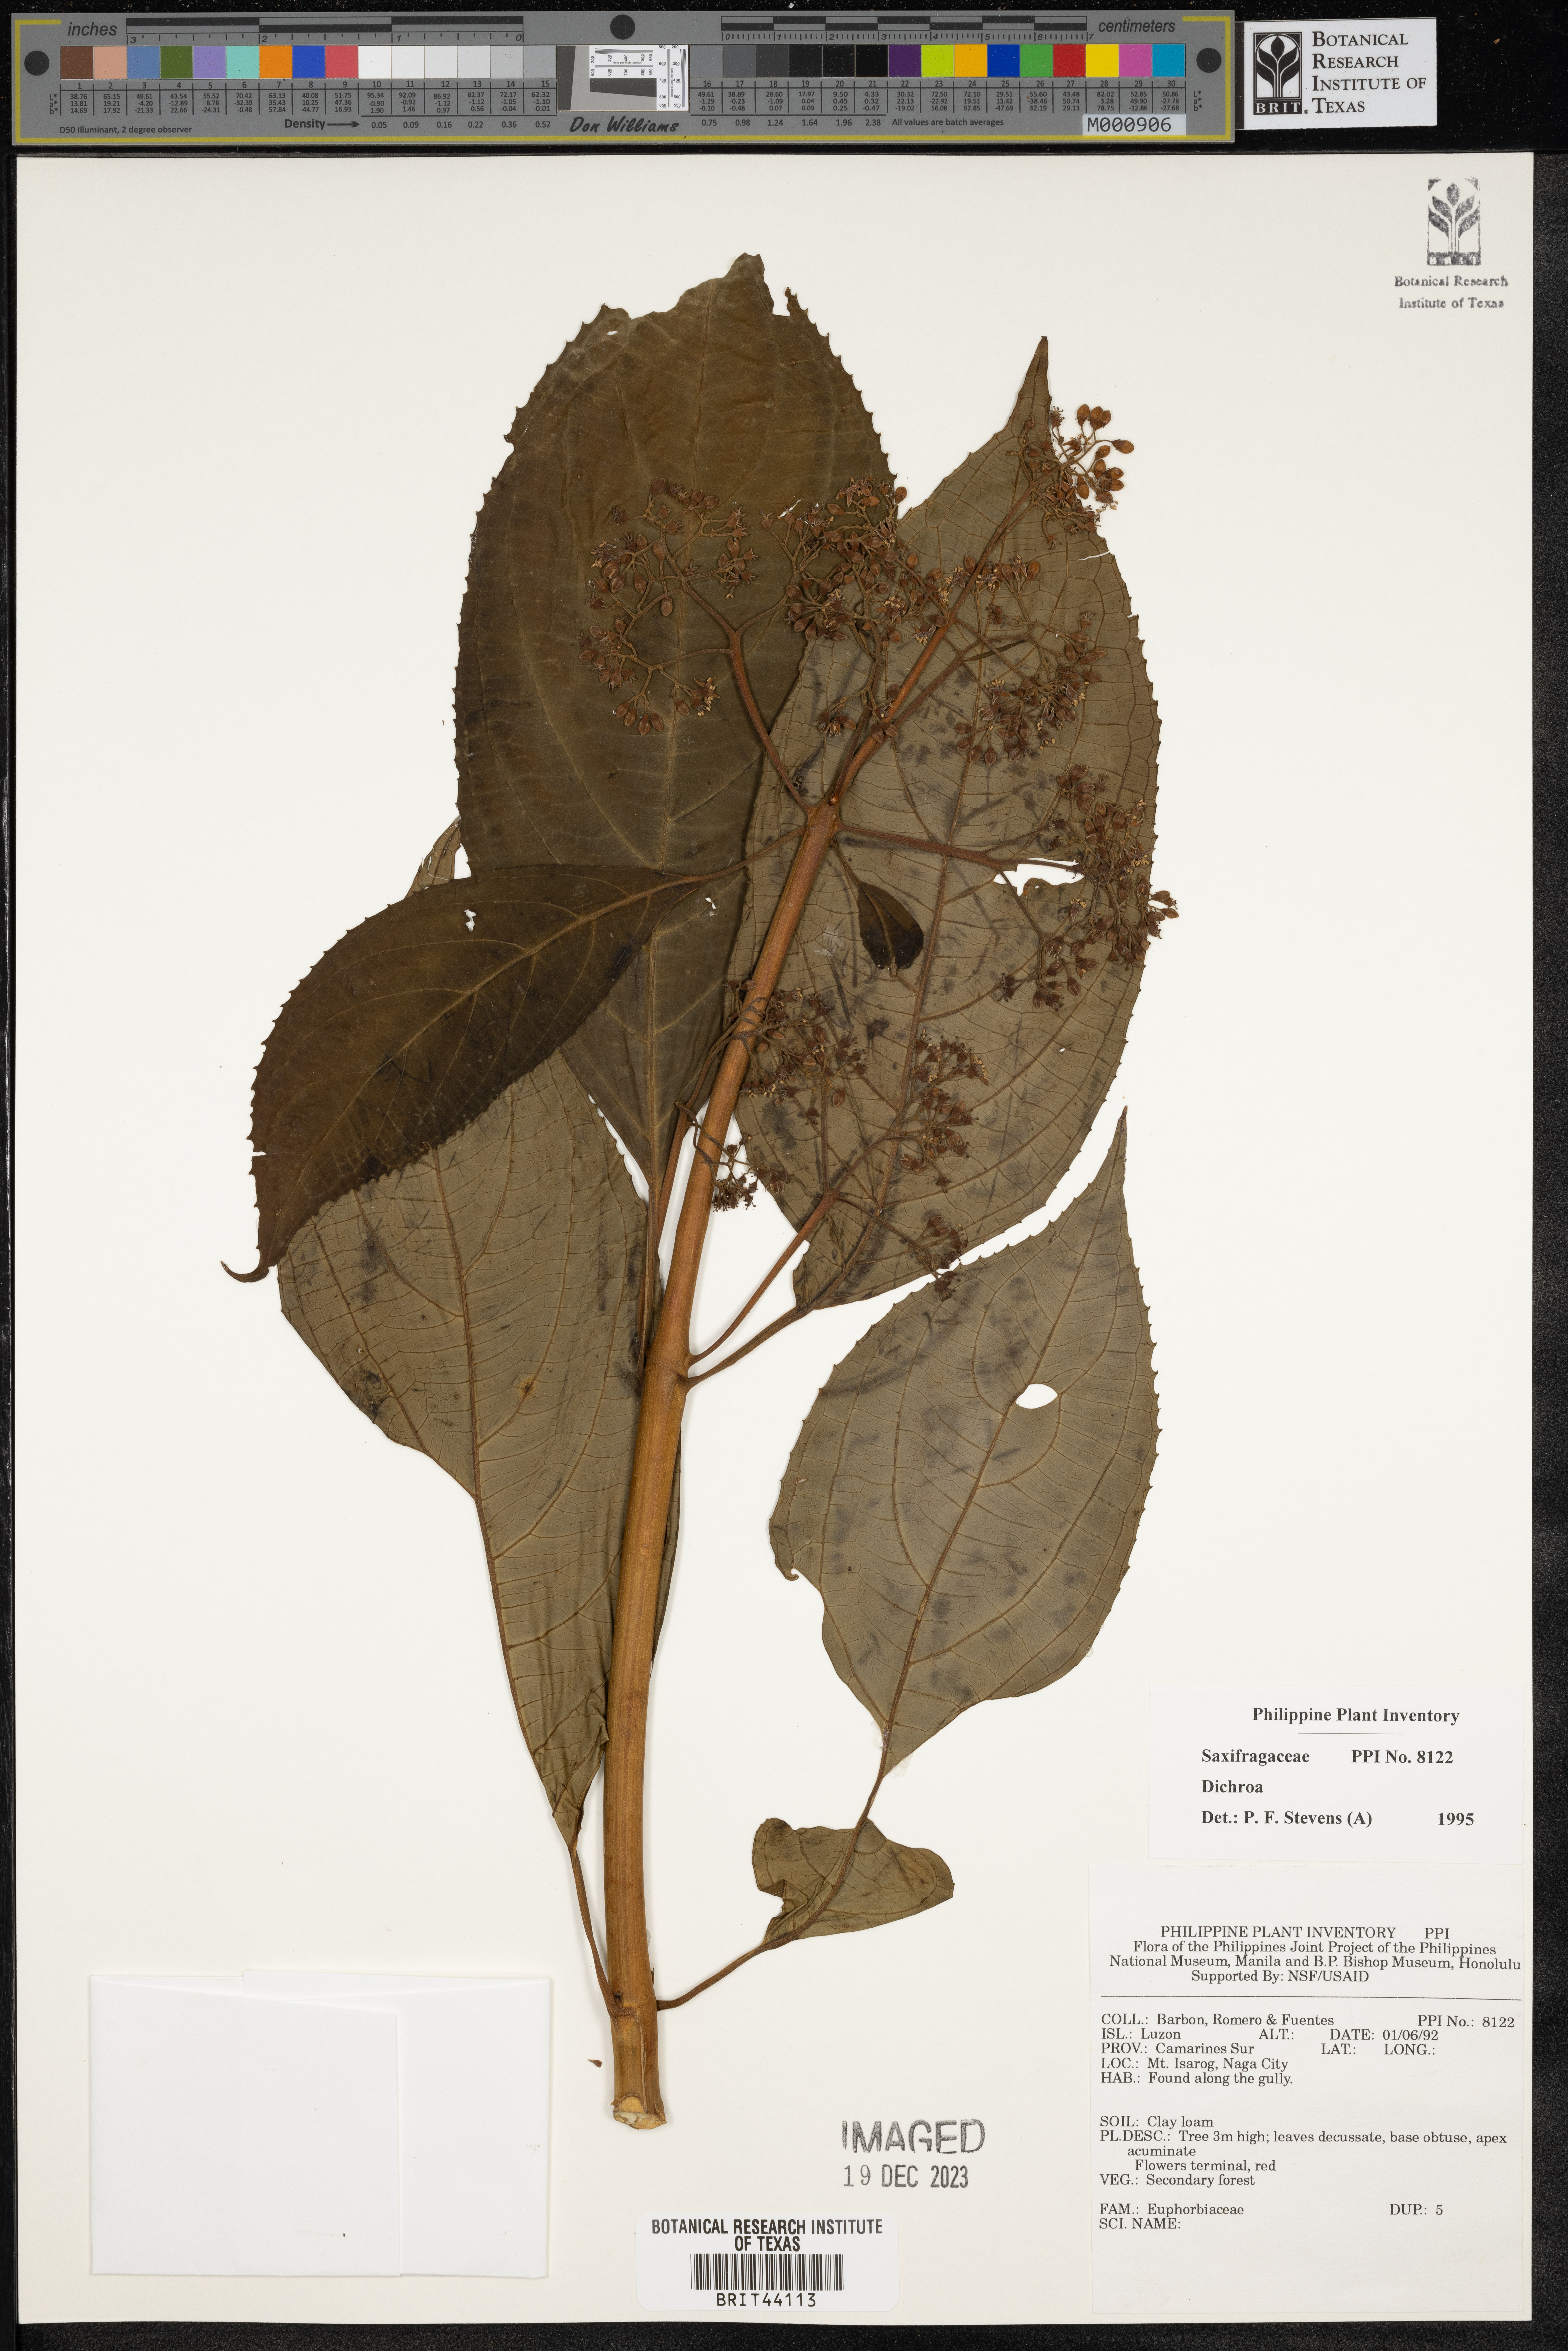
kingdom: Plantae
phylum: Tracheophyta
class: Magnoliopsida
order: Cornales
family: Hydrangeaceae
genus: Hydrangea
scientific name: Hydrangea
